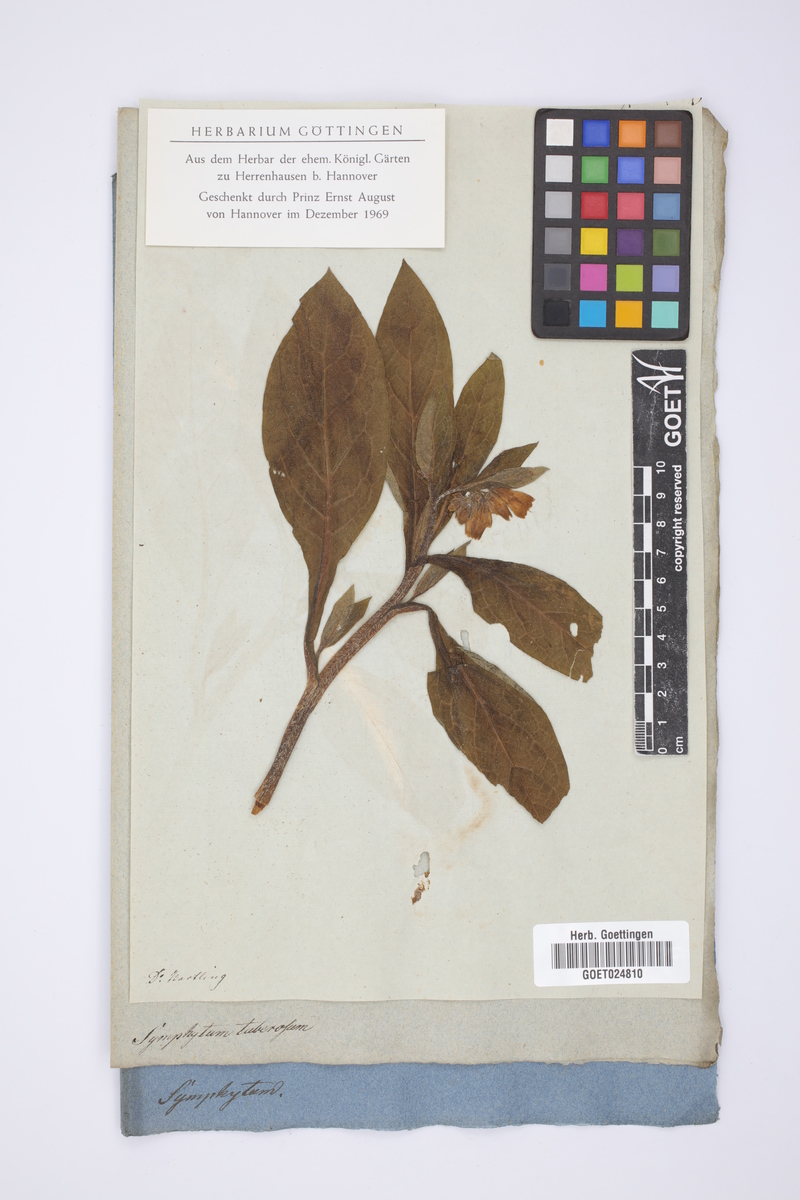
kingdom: Plantae
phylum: Tracheophyta
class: Magnoliopsida
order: Boraginales
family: Boraginaceae
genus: Symphytum
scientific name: Symphytum tuberosum
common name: Tuberous comfrey
